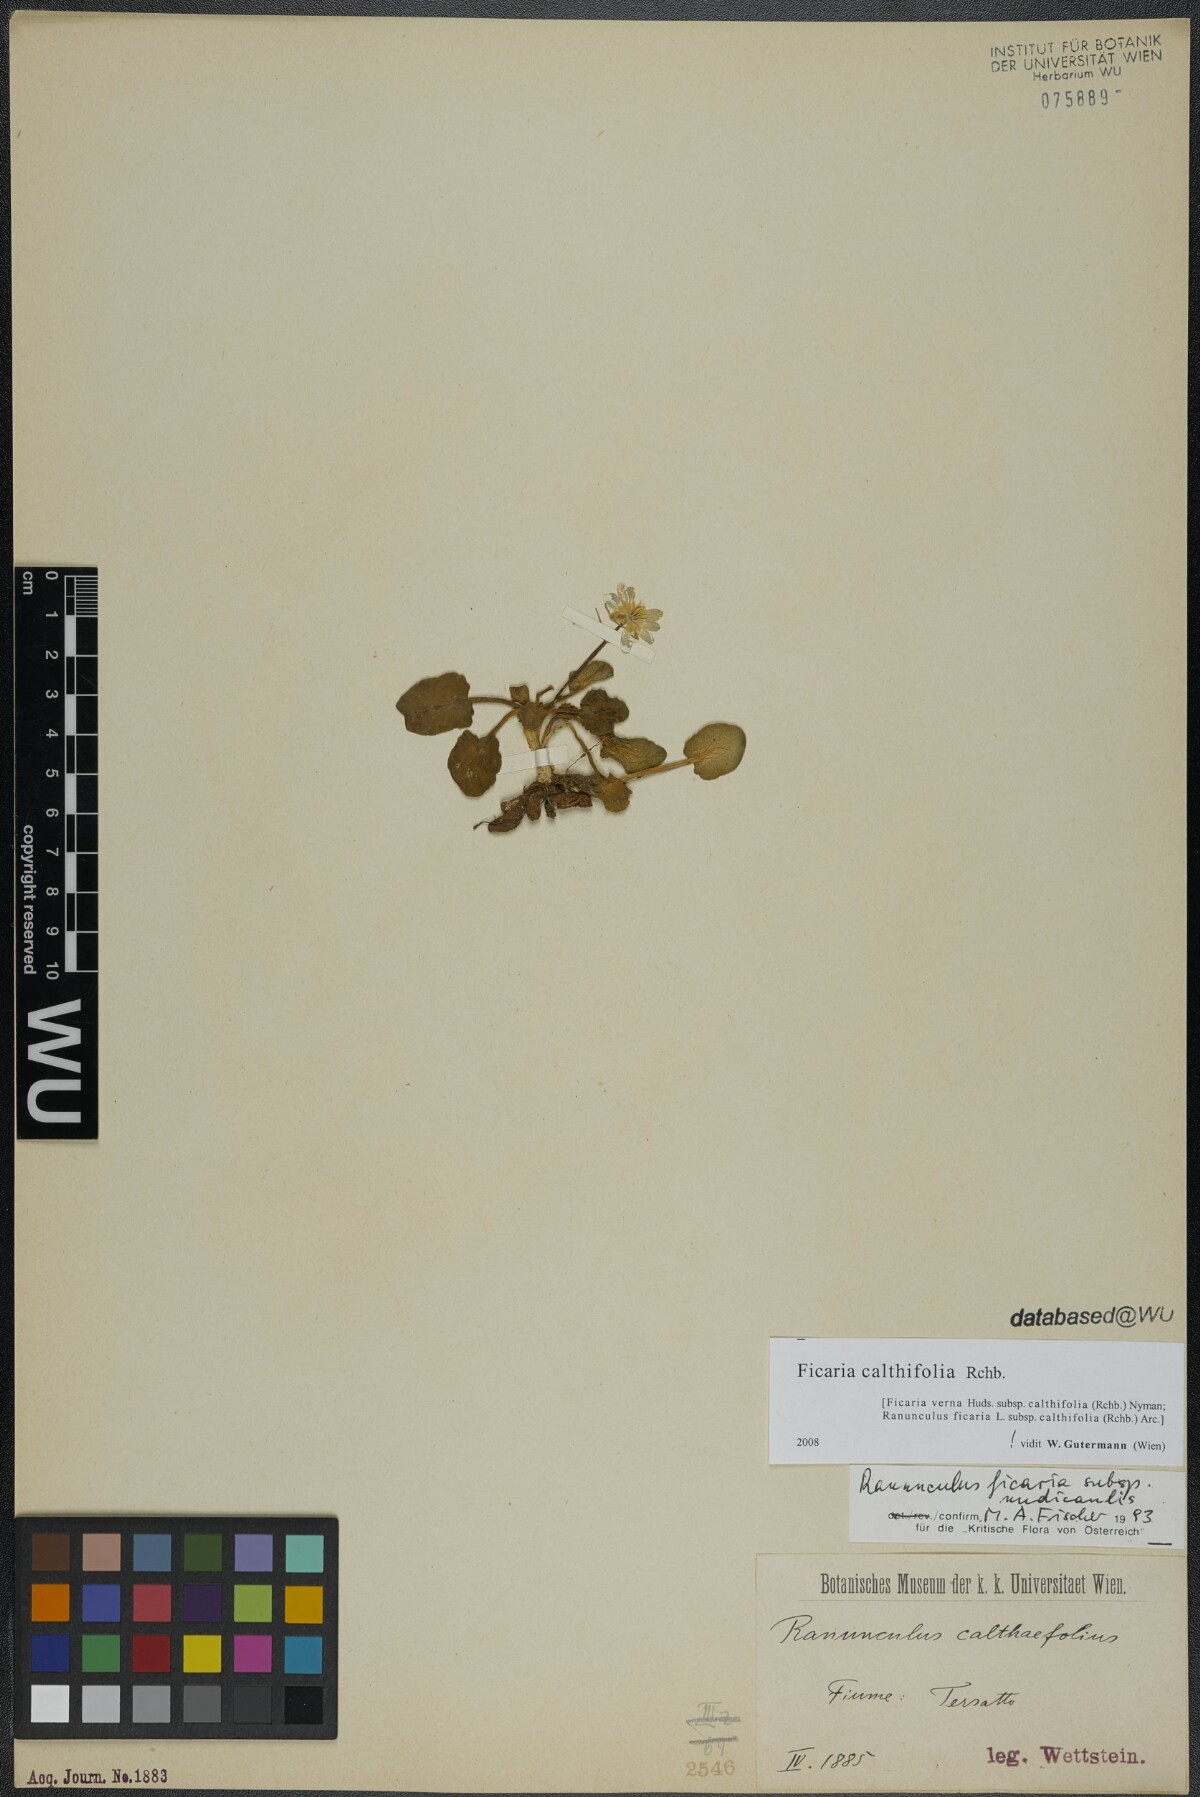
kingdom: Plantae
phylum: Tracheophyta
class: Magnoliopsida
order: Ranunculales
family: Ranunculaceae
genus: Ficaria
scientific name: Ficaria calthifolia
